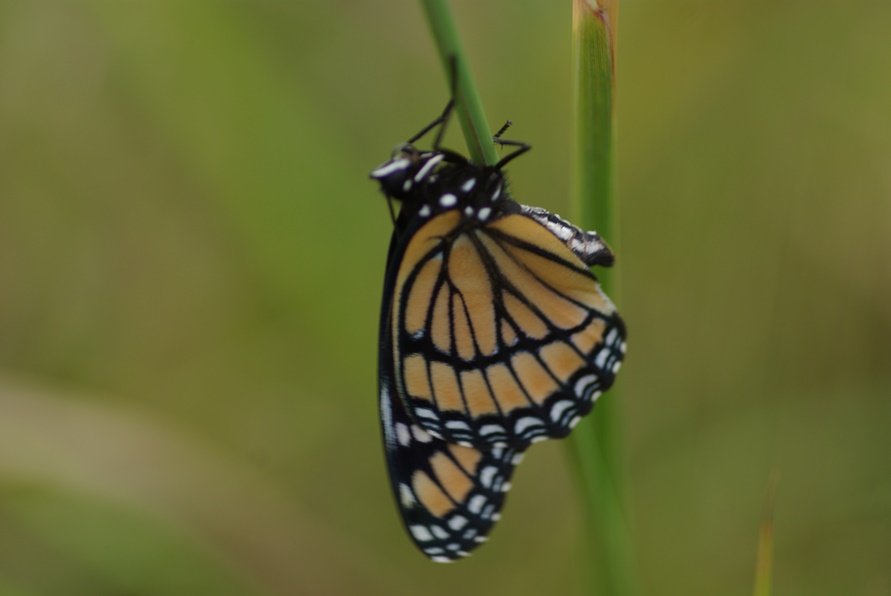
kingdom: Animalia
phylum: Arthropoda
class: Insecta
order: Lepidoptera
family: Nymphalidae
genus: Limenitis
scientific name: Limenitis archippus
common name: Viceroy
